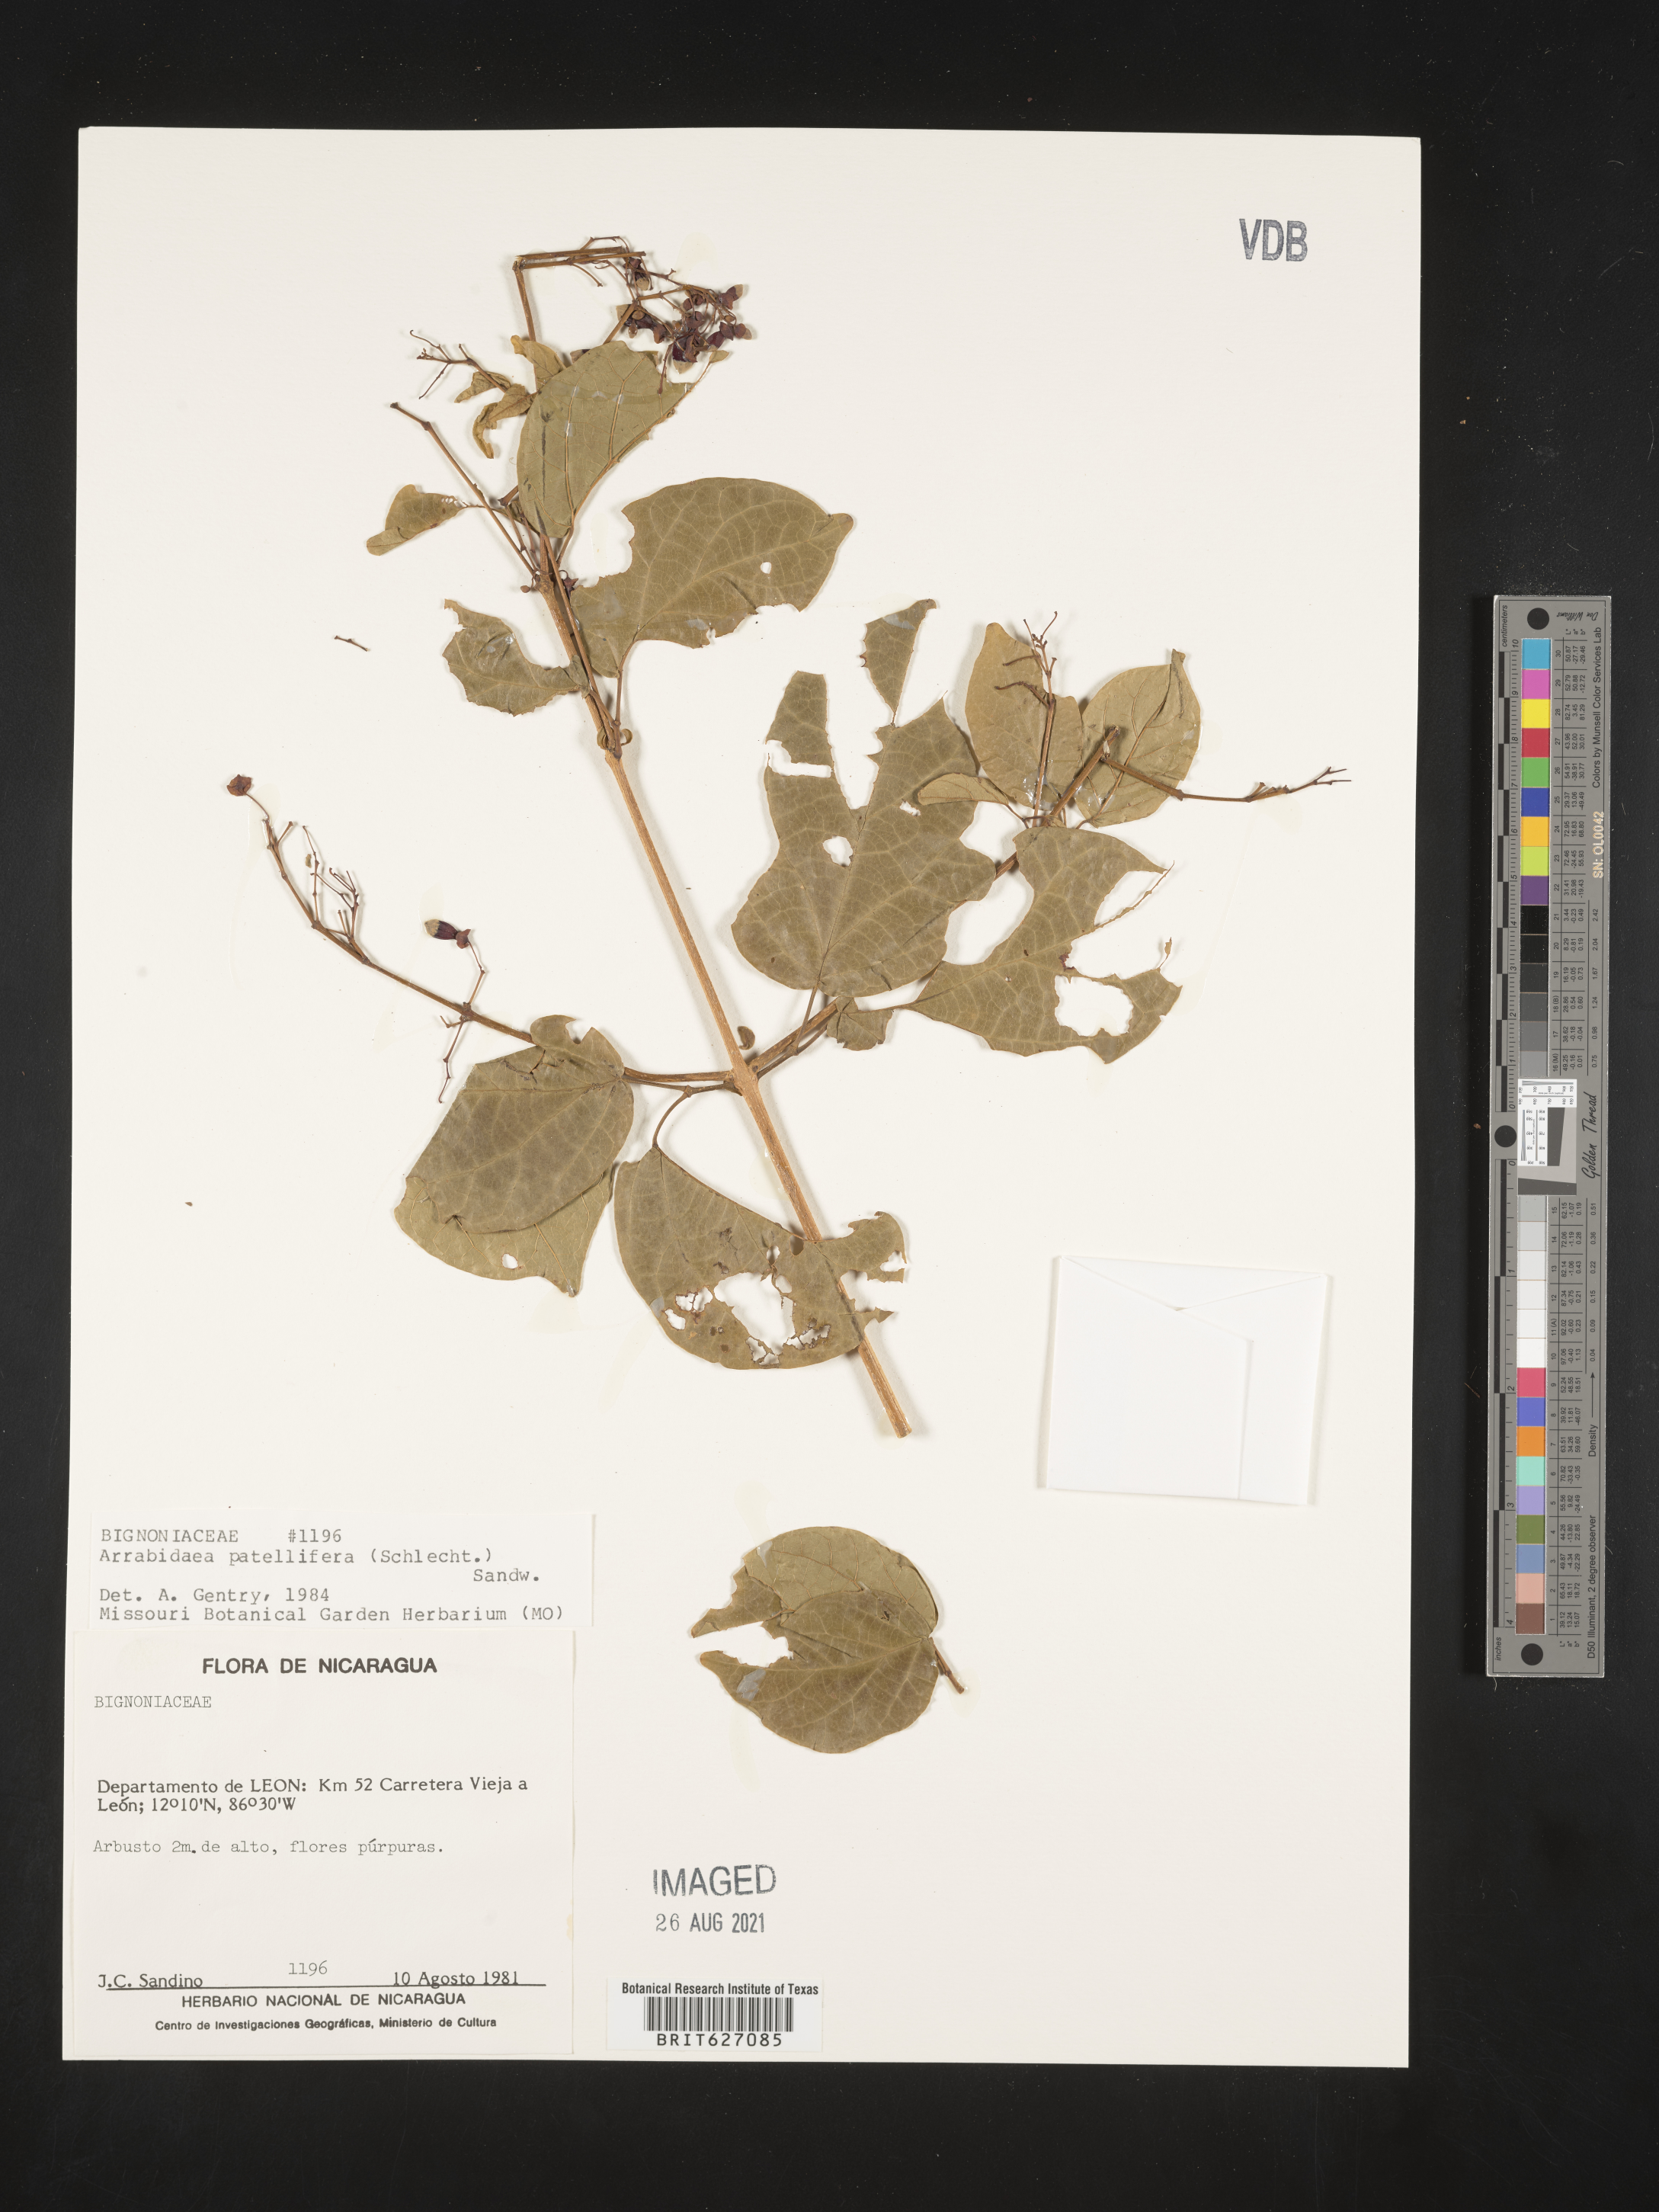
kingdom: Plantae
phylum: Tracheophyta
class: Magnoliopsida
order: Lamiales
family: Bignoniaceae
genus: Fridericia
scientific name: Fridericia patellifera
